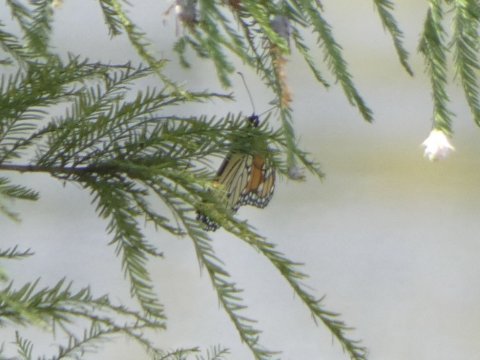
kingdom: Animalia
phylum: Arthropoda
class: Insecta
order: Lepidoptera
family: Nymphalidae
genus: Danaus
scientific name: Danaus plexippus
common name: Monarch
